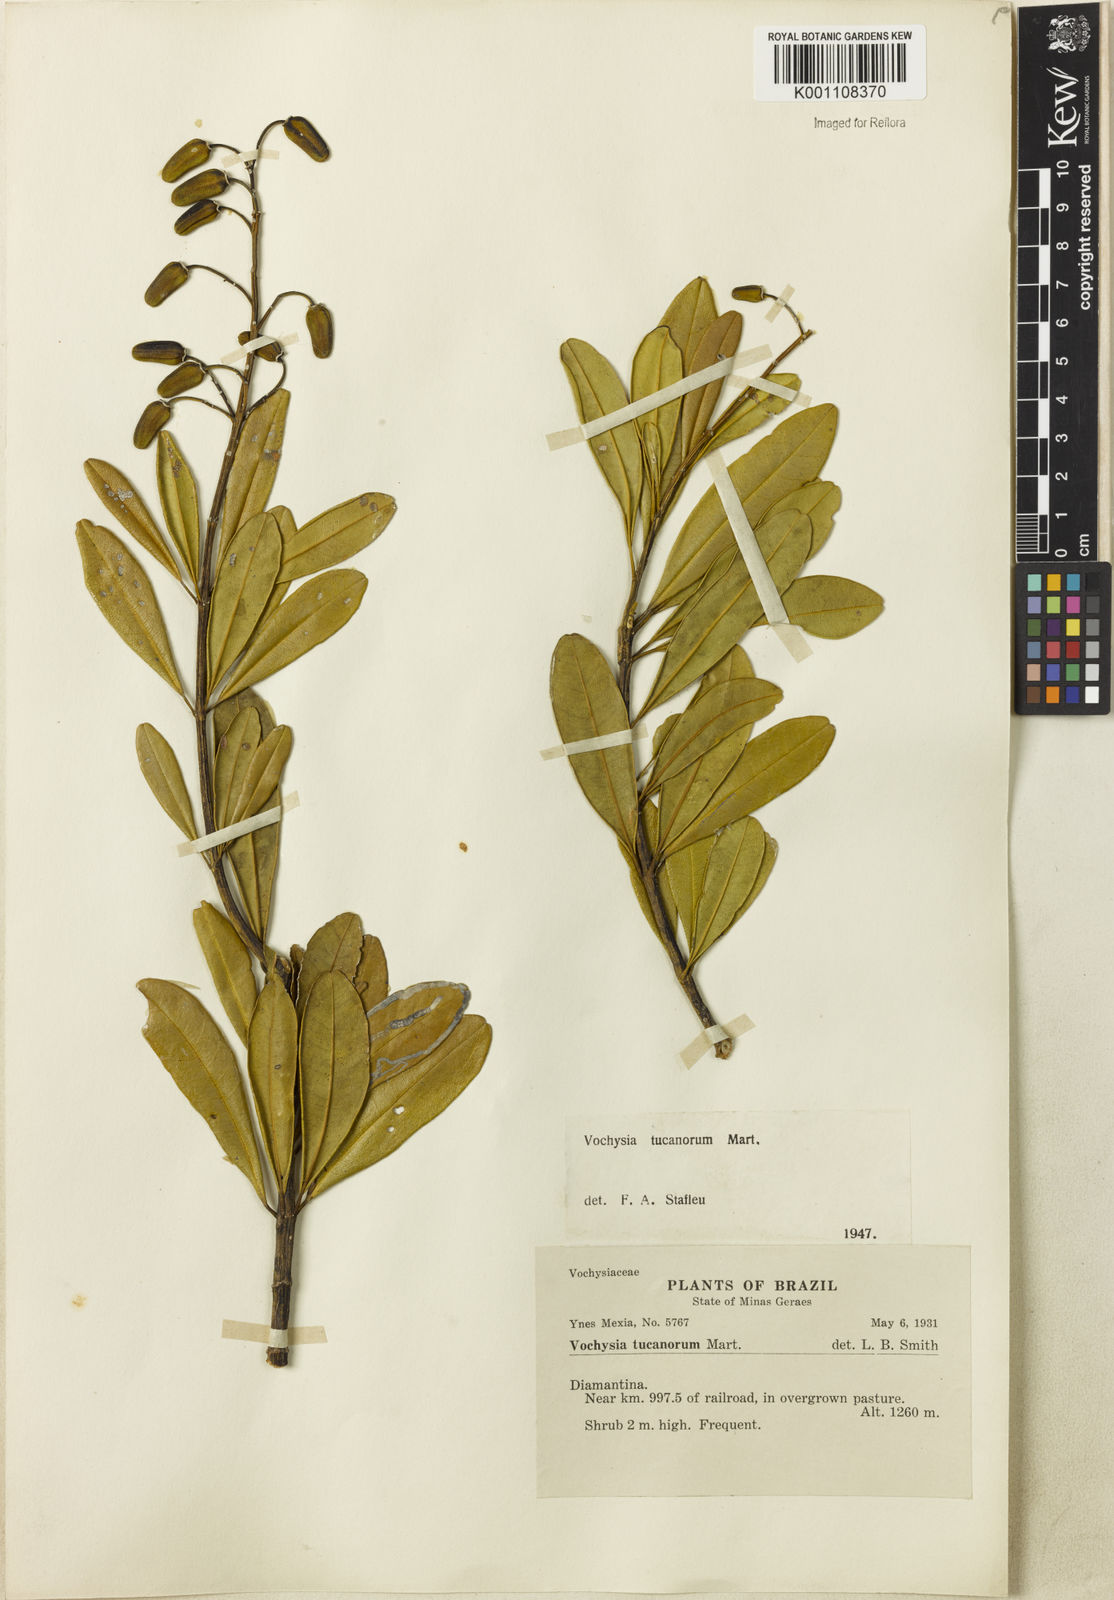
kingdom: Plantae
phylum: Tracheophyta
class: Magnoliopsida
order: Myrtales
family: Vochysiaceae
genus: Vochysia
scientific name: Vochysia tucanorum
